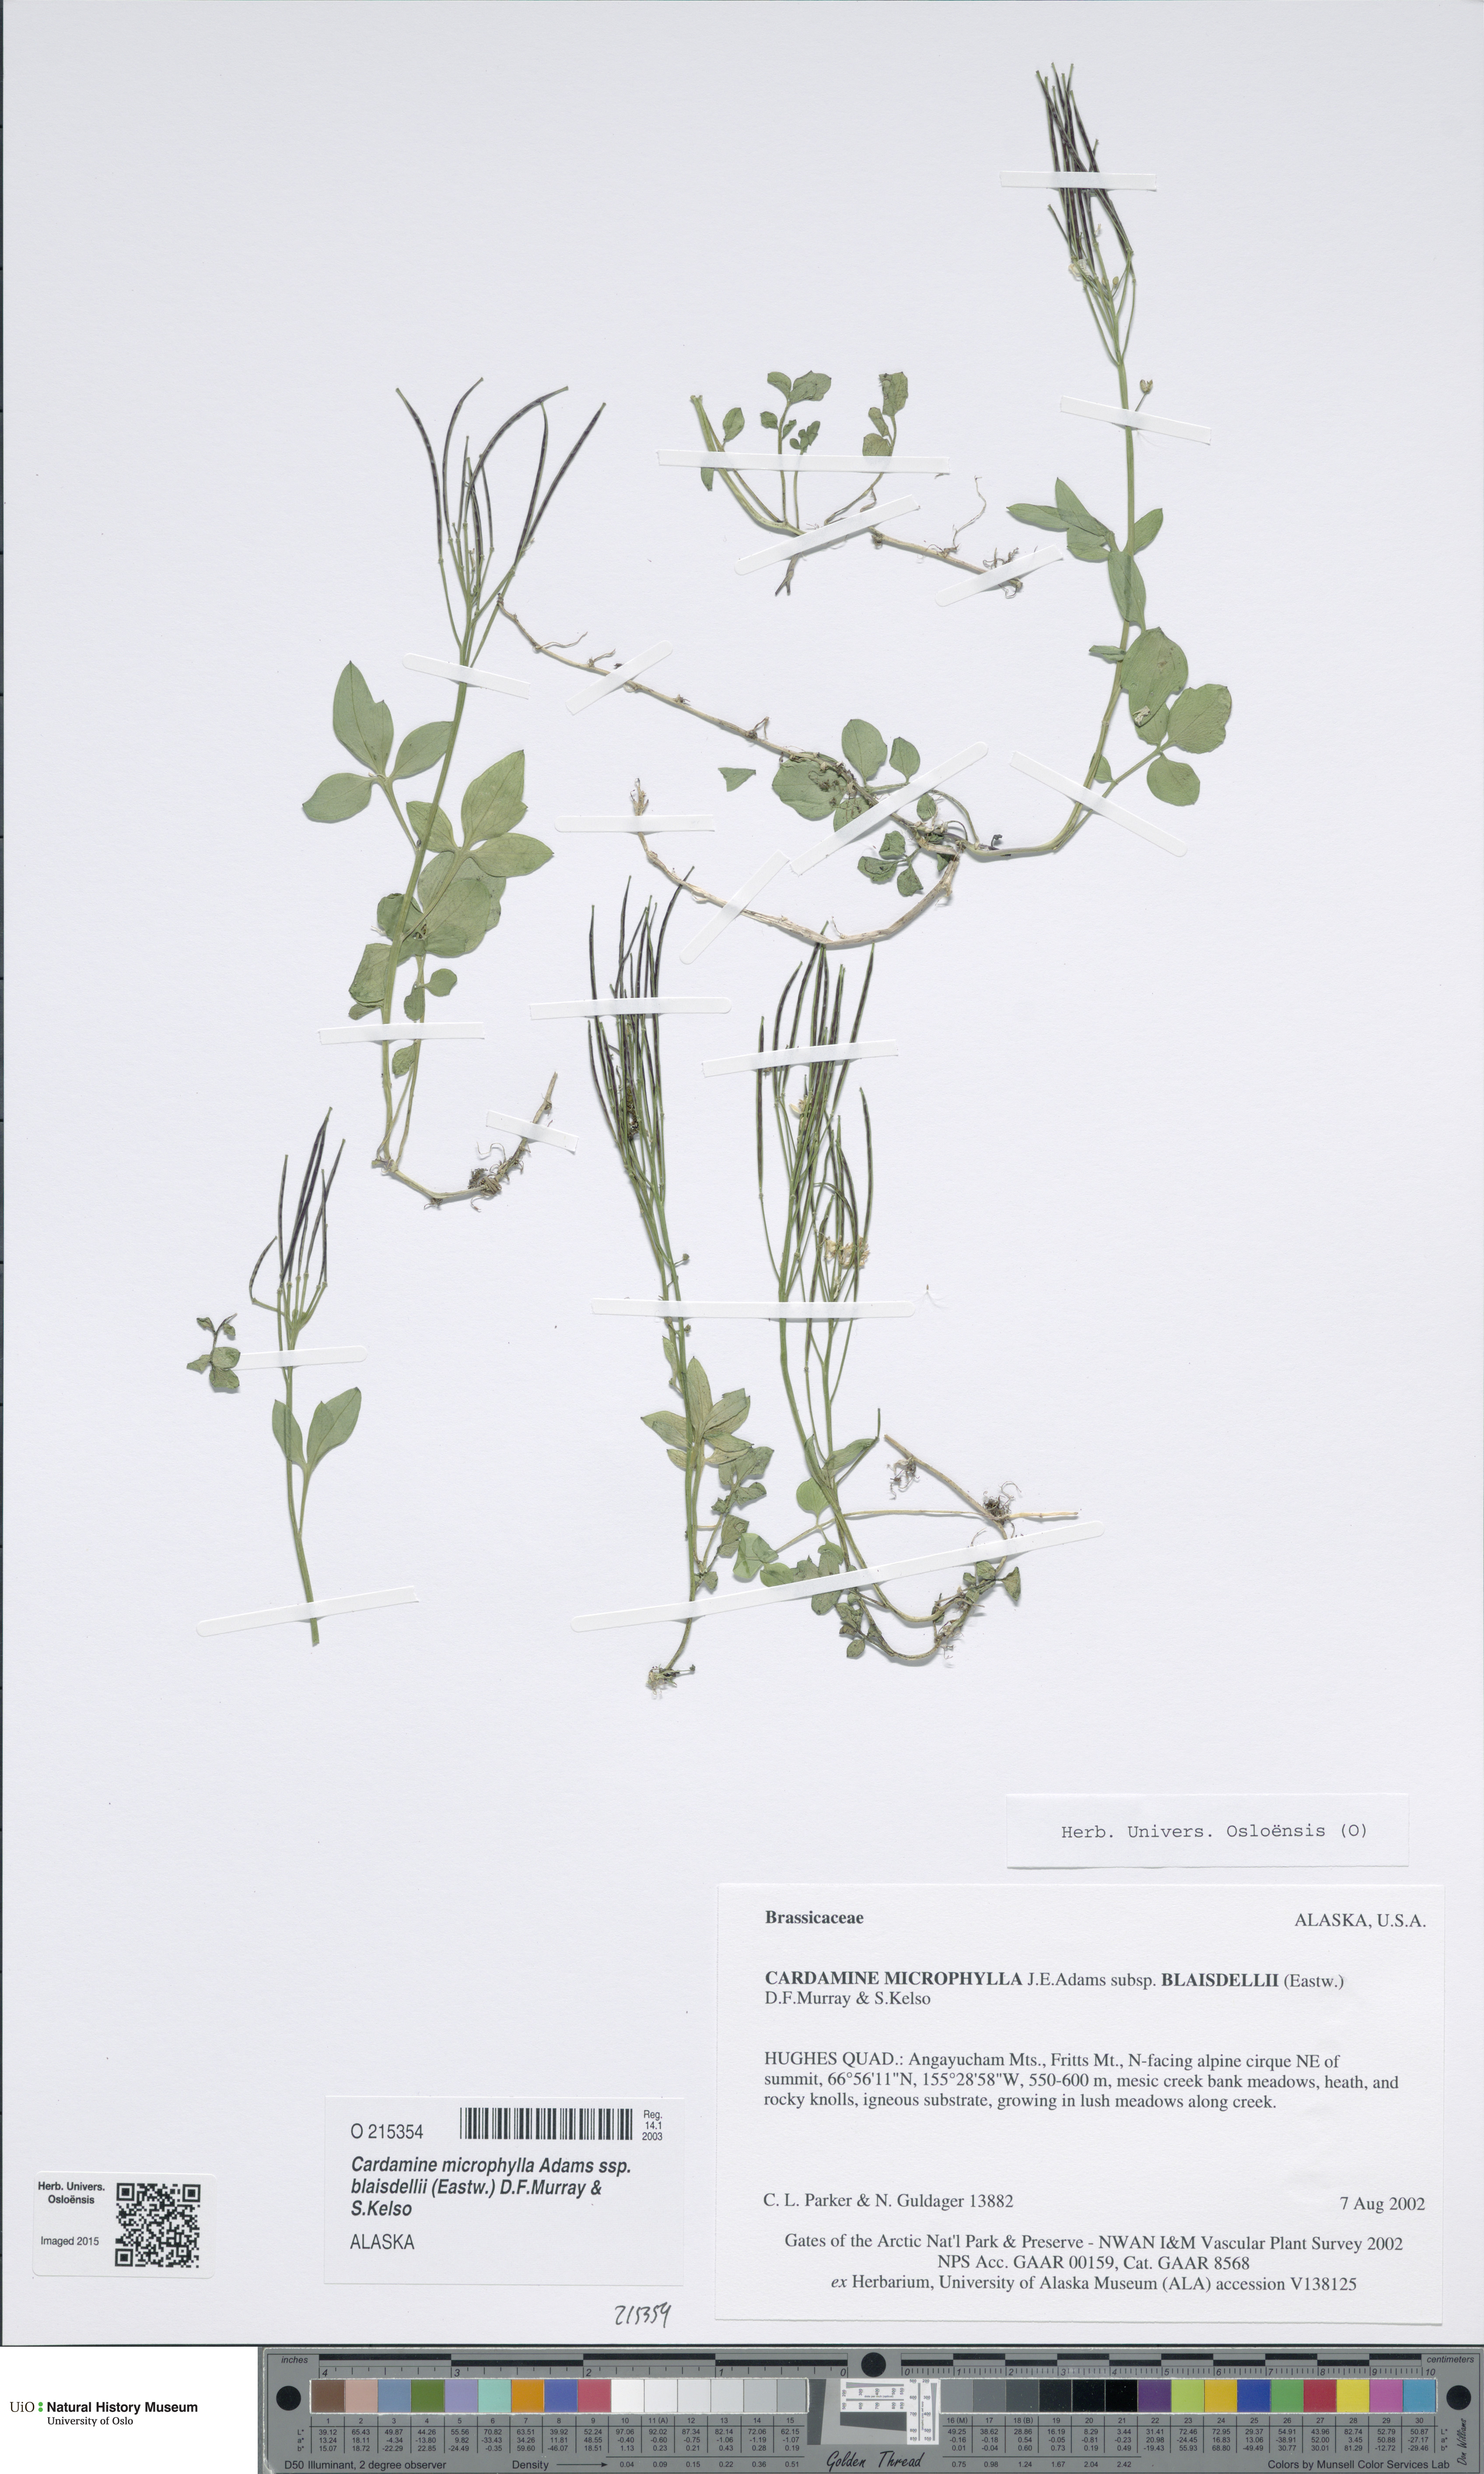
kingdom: Plantae
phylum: Tracheophyta
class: Magnoliopsida
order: Brassicales
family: Brassicaceae
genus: Cardamine
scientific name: Cardamine blaisdellii
